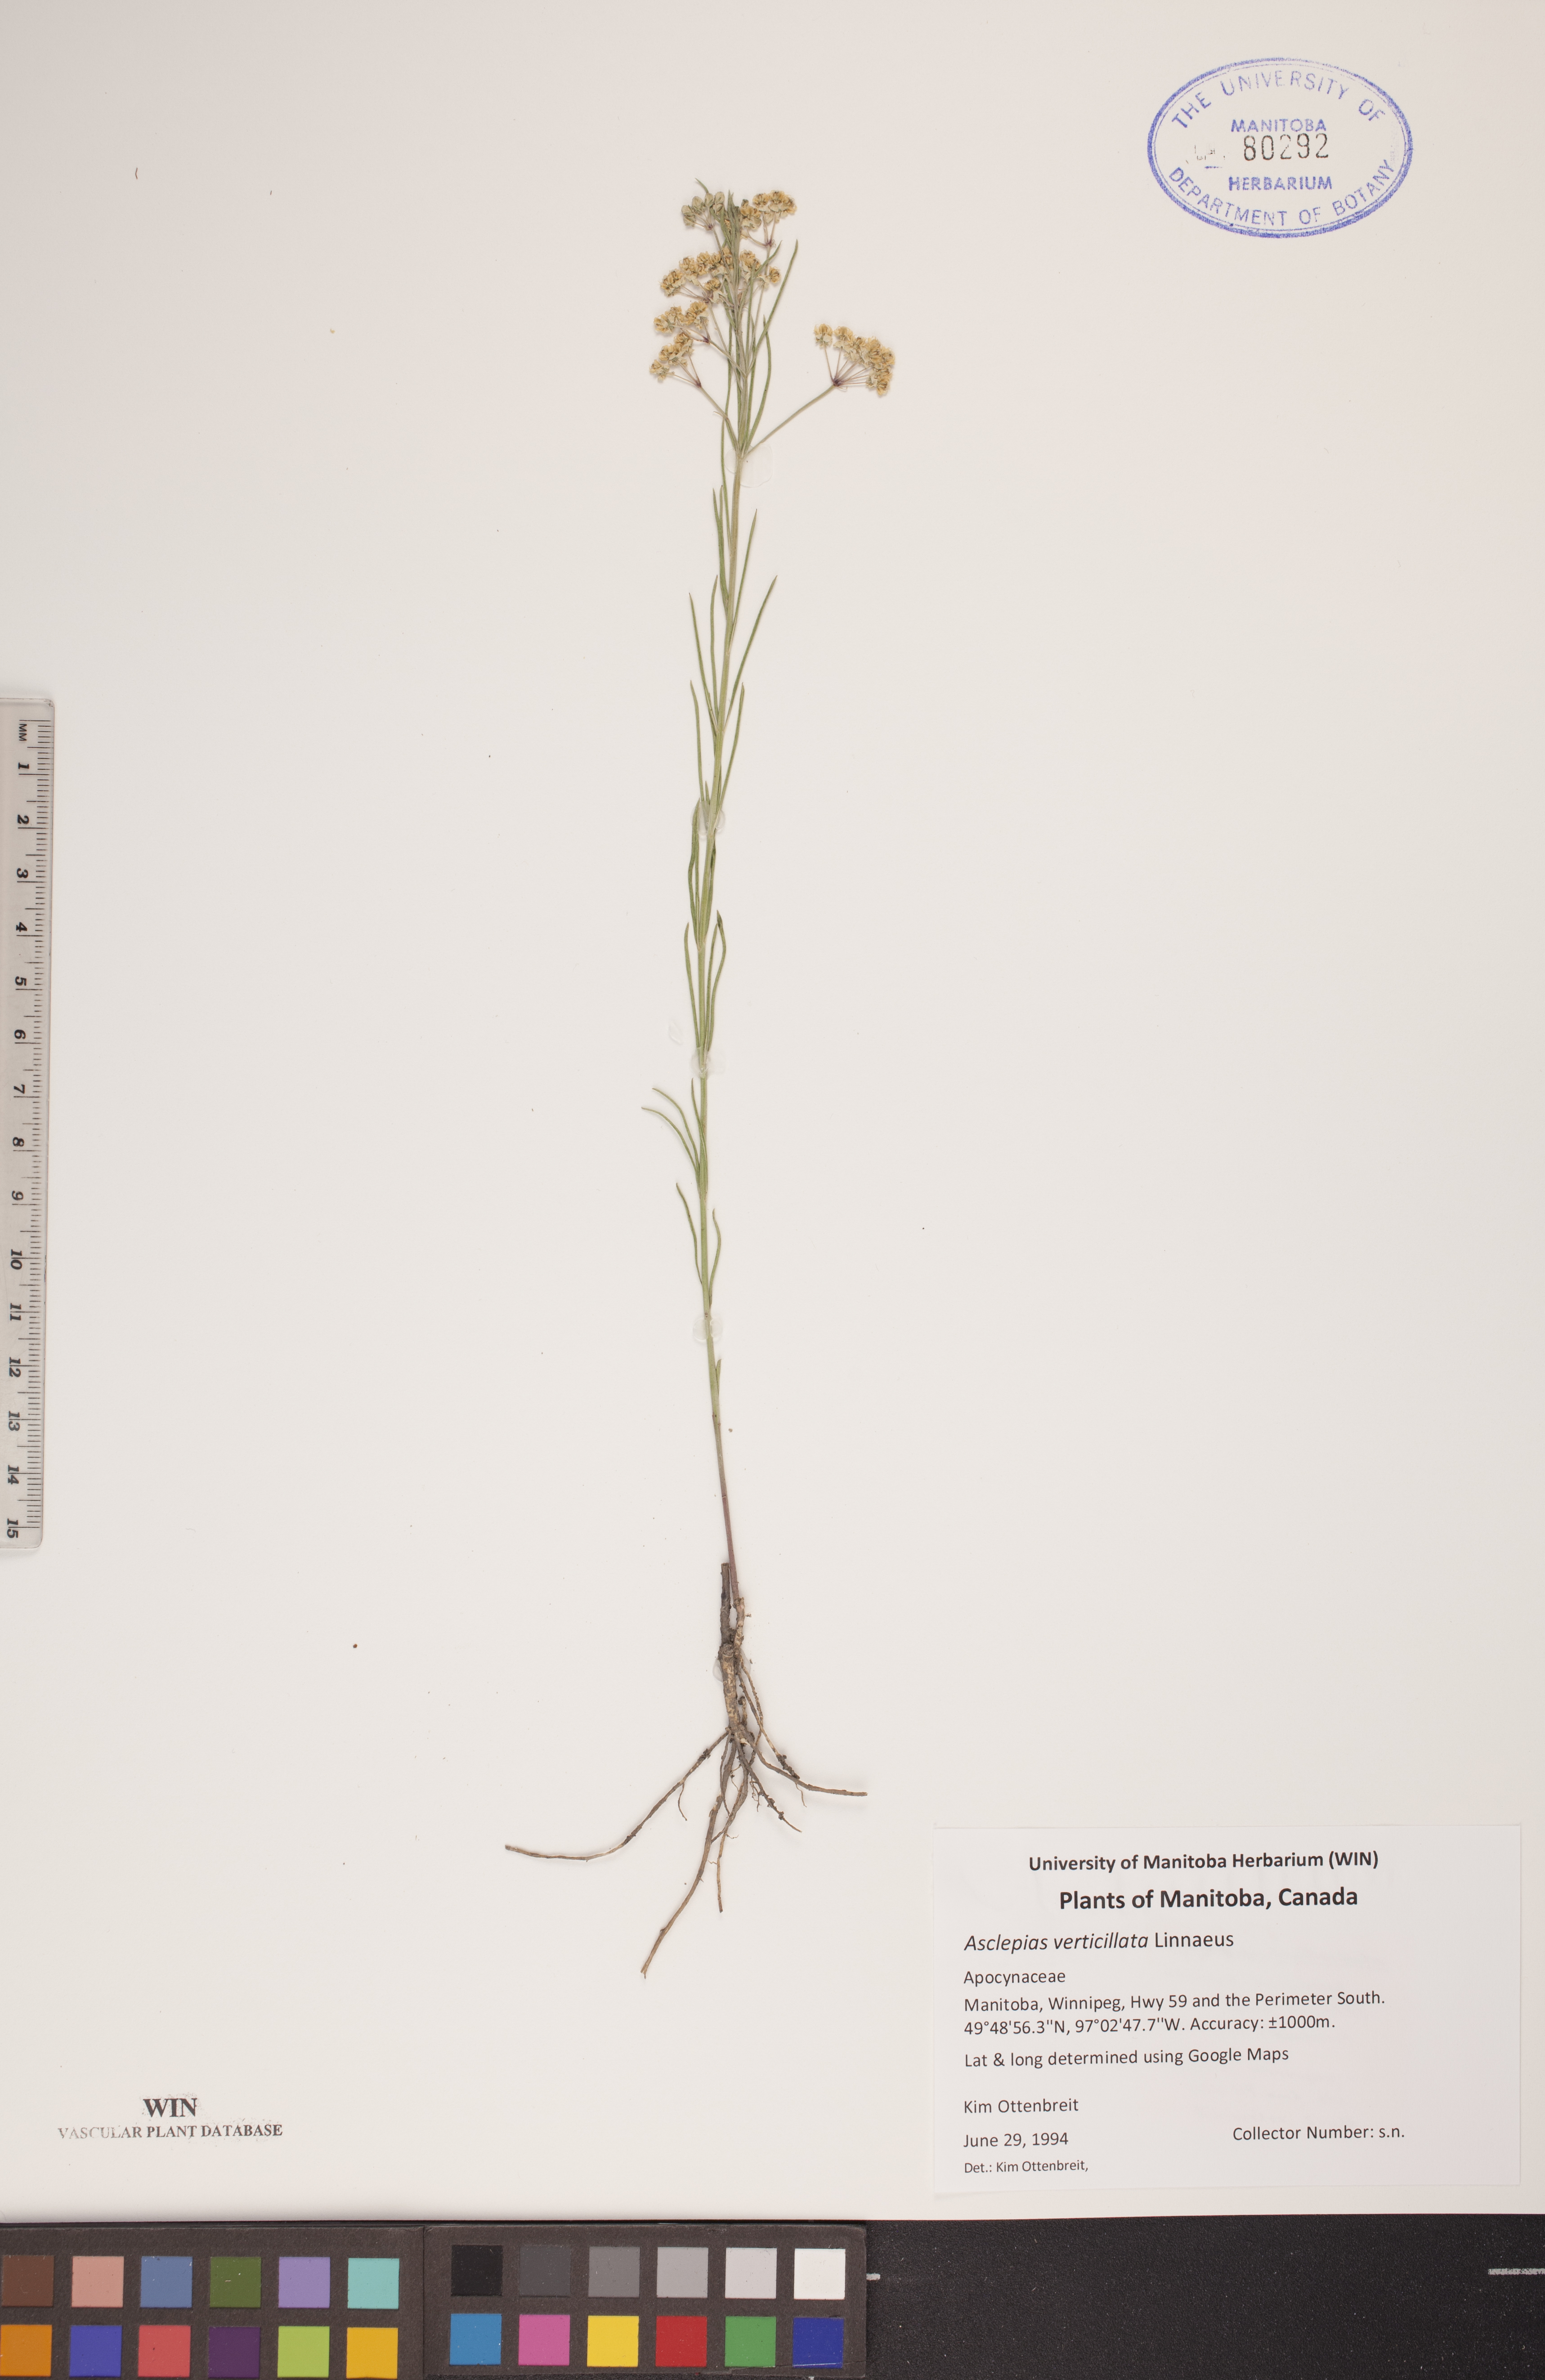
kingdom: Plantae
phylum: Tracheophyta
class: Magnoliopsida
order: Gentianales
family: Apocynaceae
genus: Asclepias
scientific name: Asclepias verticillata
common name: Eastern whorled milkweed
